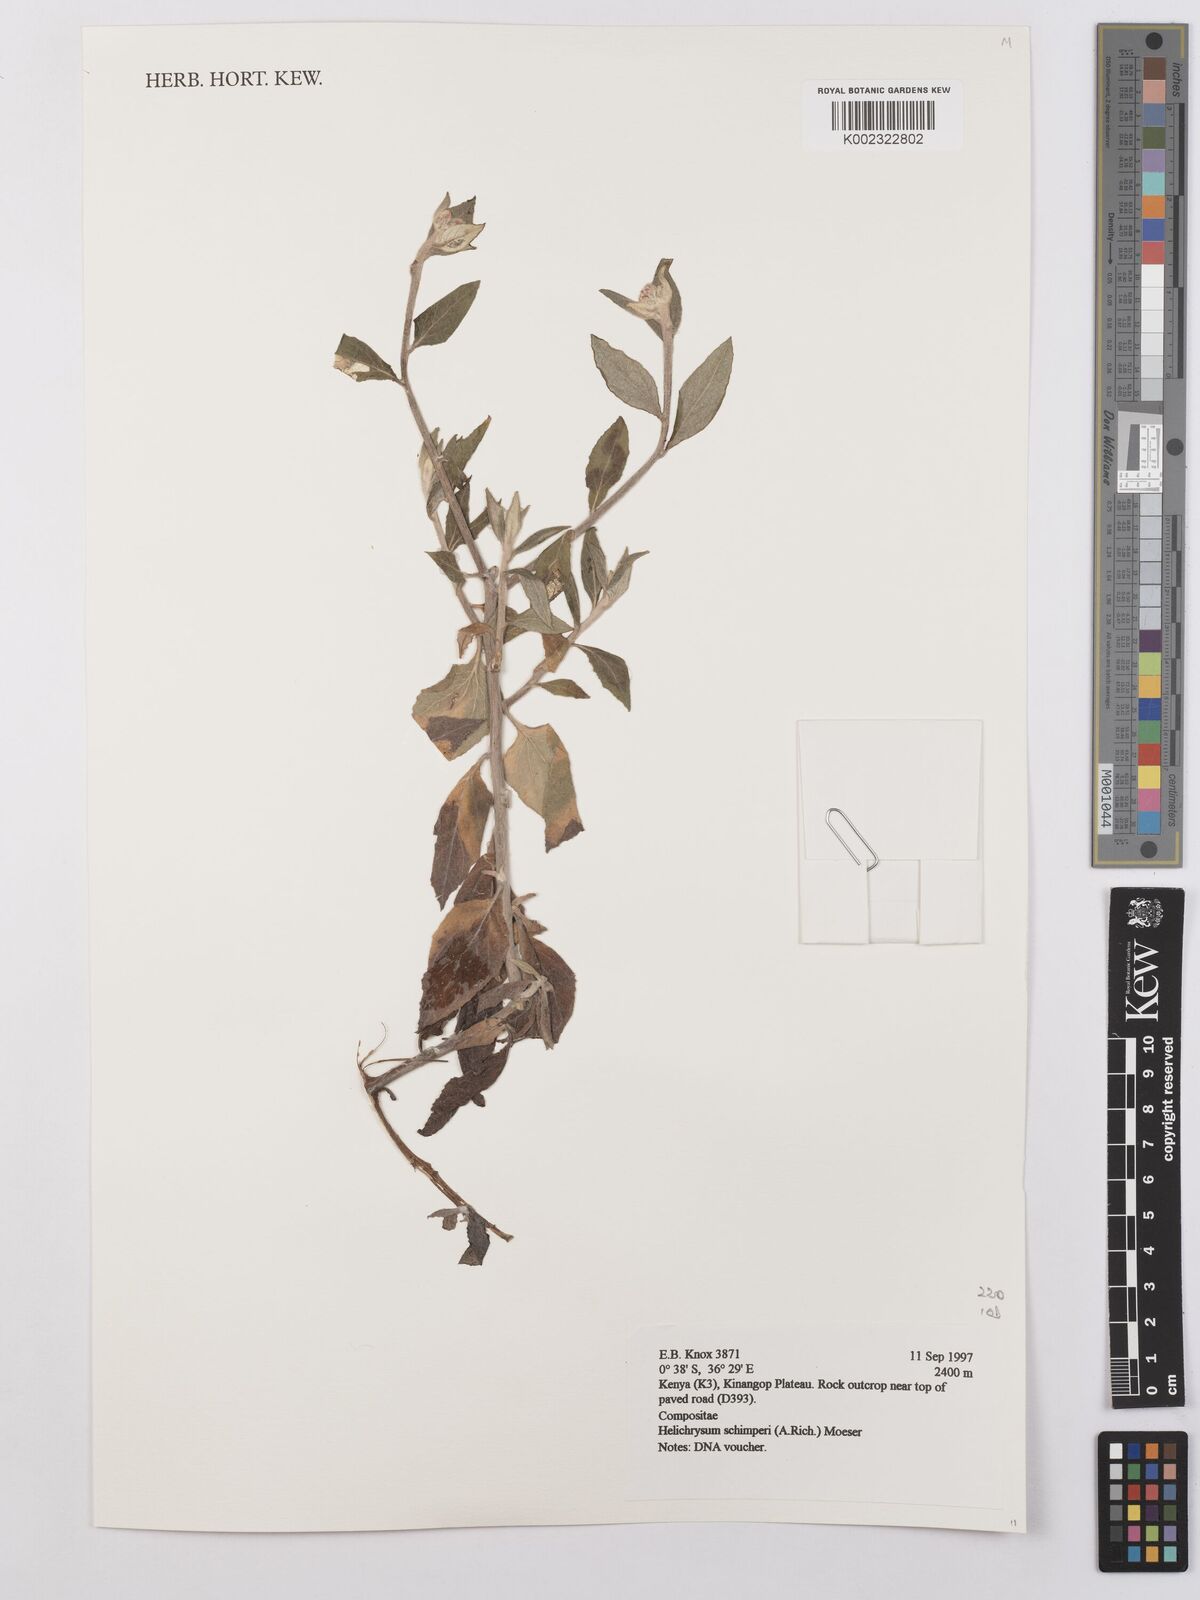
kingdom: Plantae
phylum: Tracheophyta
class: Magnoliopsida
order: Asterales
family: Asteraceae
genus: Helichrysum
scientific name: Helichrysum schimperi
